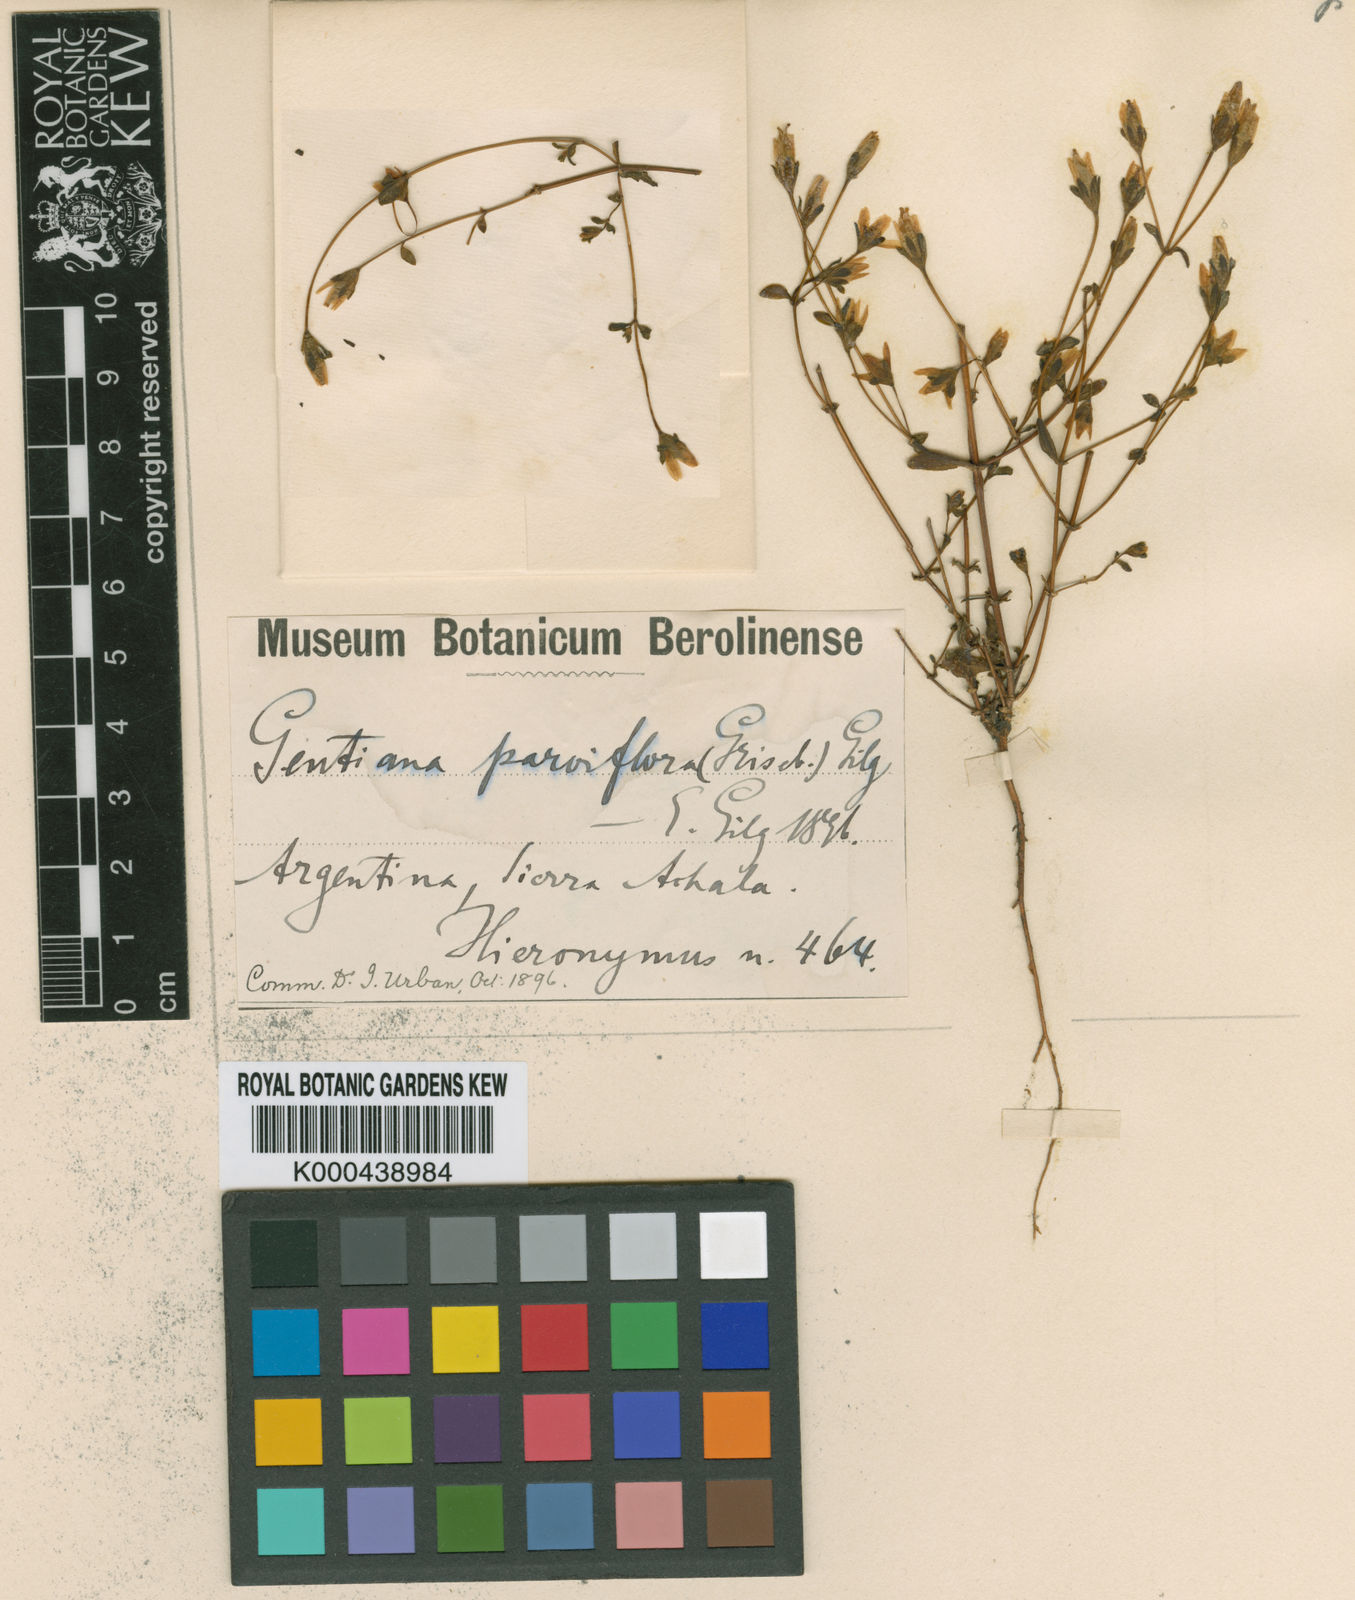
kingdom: Plantae
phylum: Tracheophyta
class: Magnoliopsida
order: Gentianales
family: Gentianaceae
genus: Gentianella
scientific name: Gentianella parviflora
